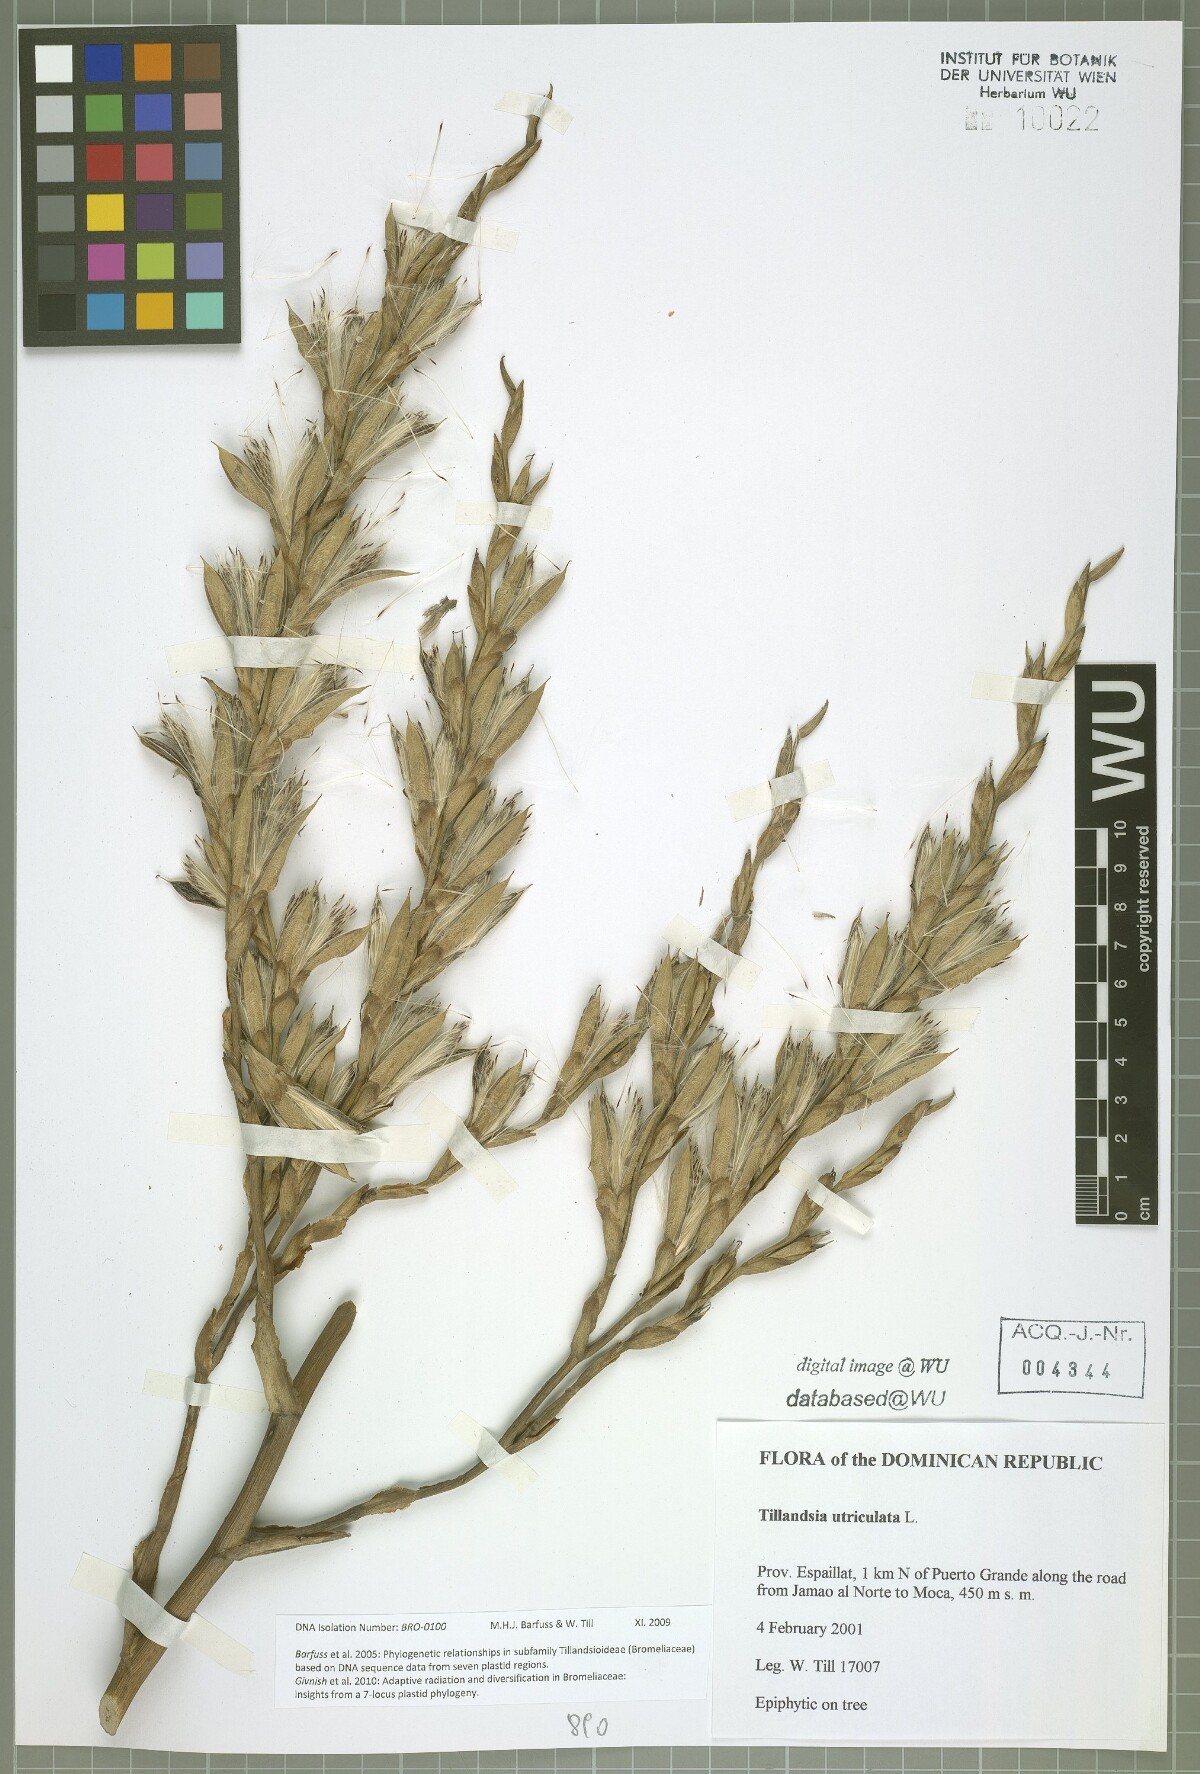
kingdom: Plantae
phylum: Tracheophyta
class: Liliopsida
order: Poales
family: Bromeliaceae
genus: Tillandsia
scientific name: Tillandsia utriculata
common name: Wild pine
